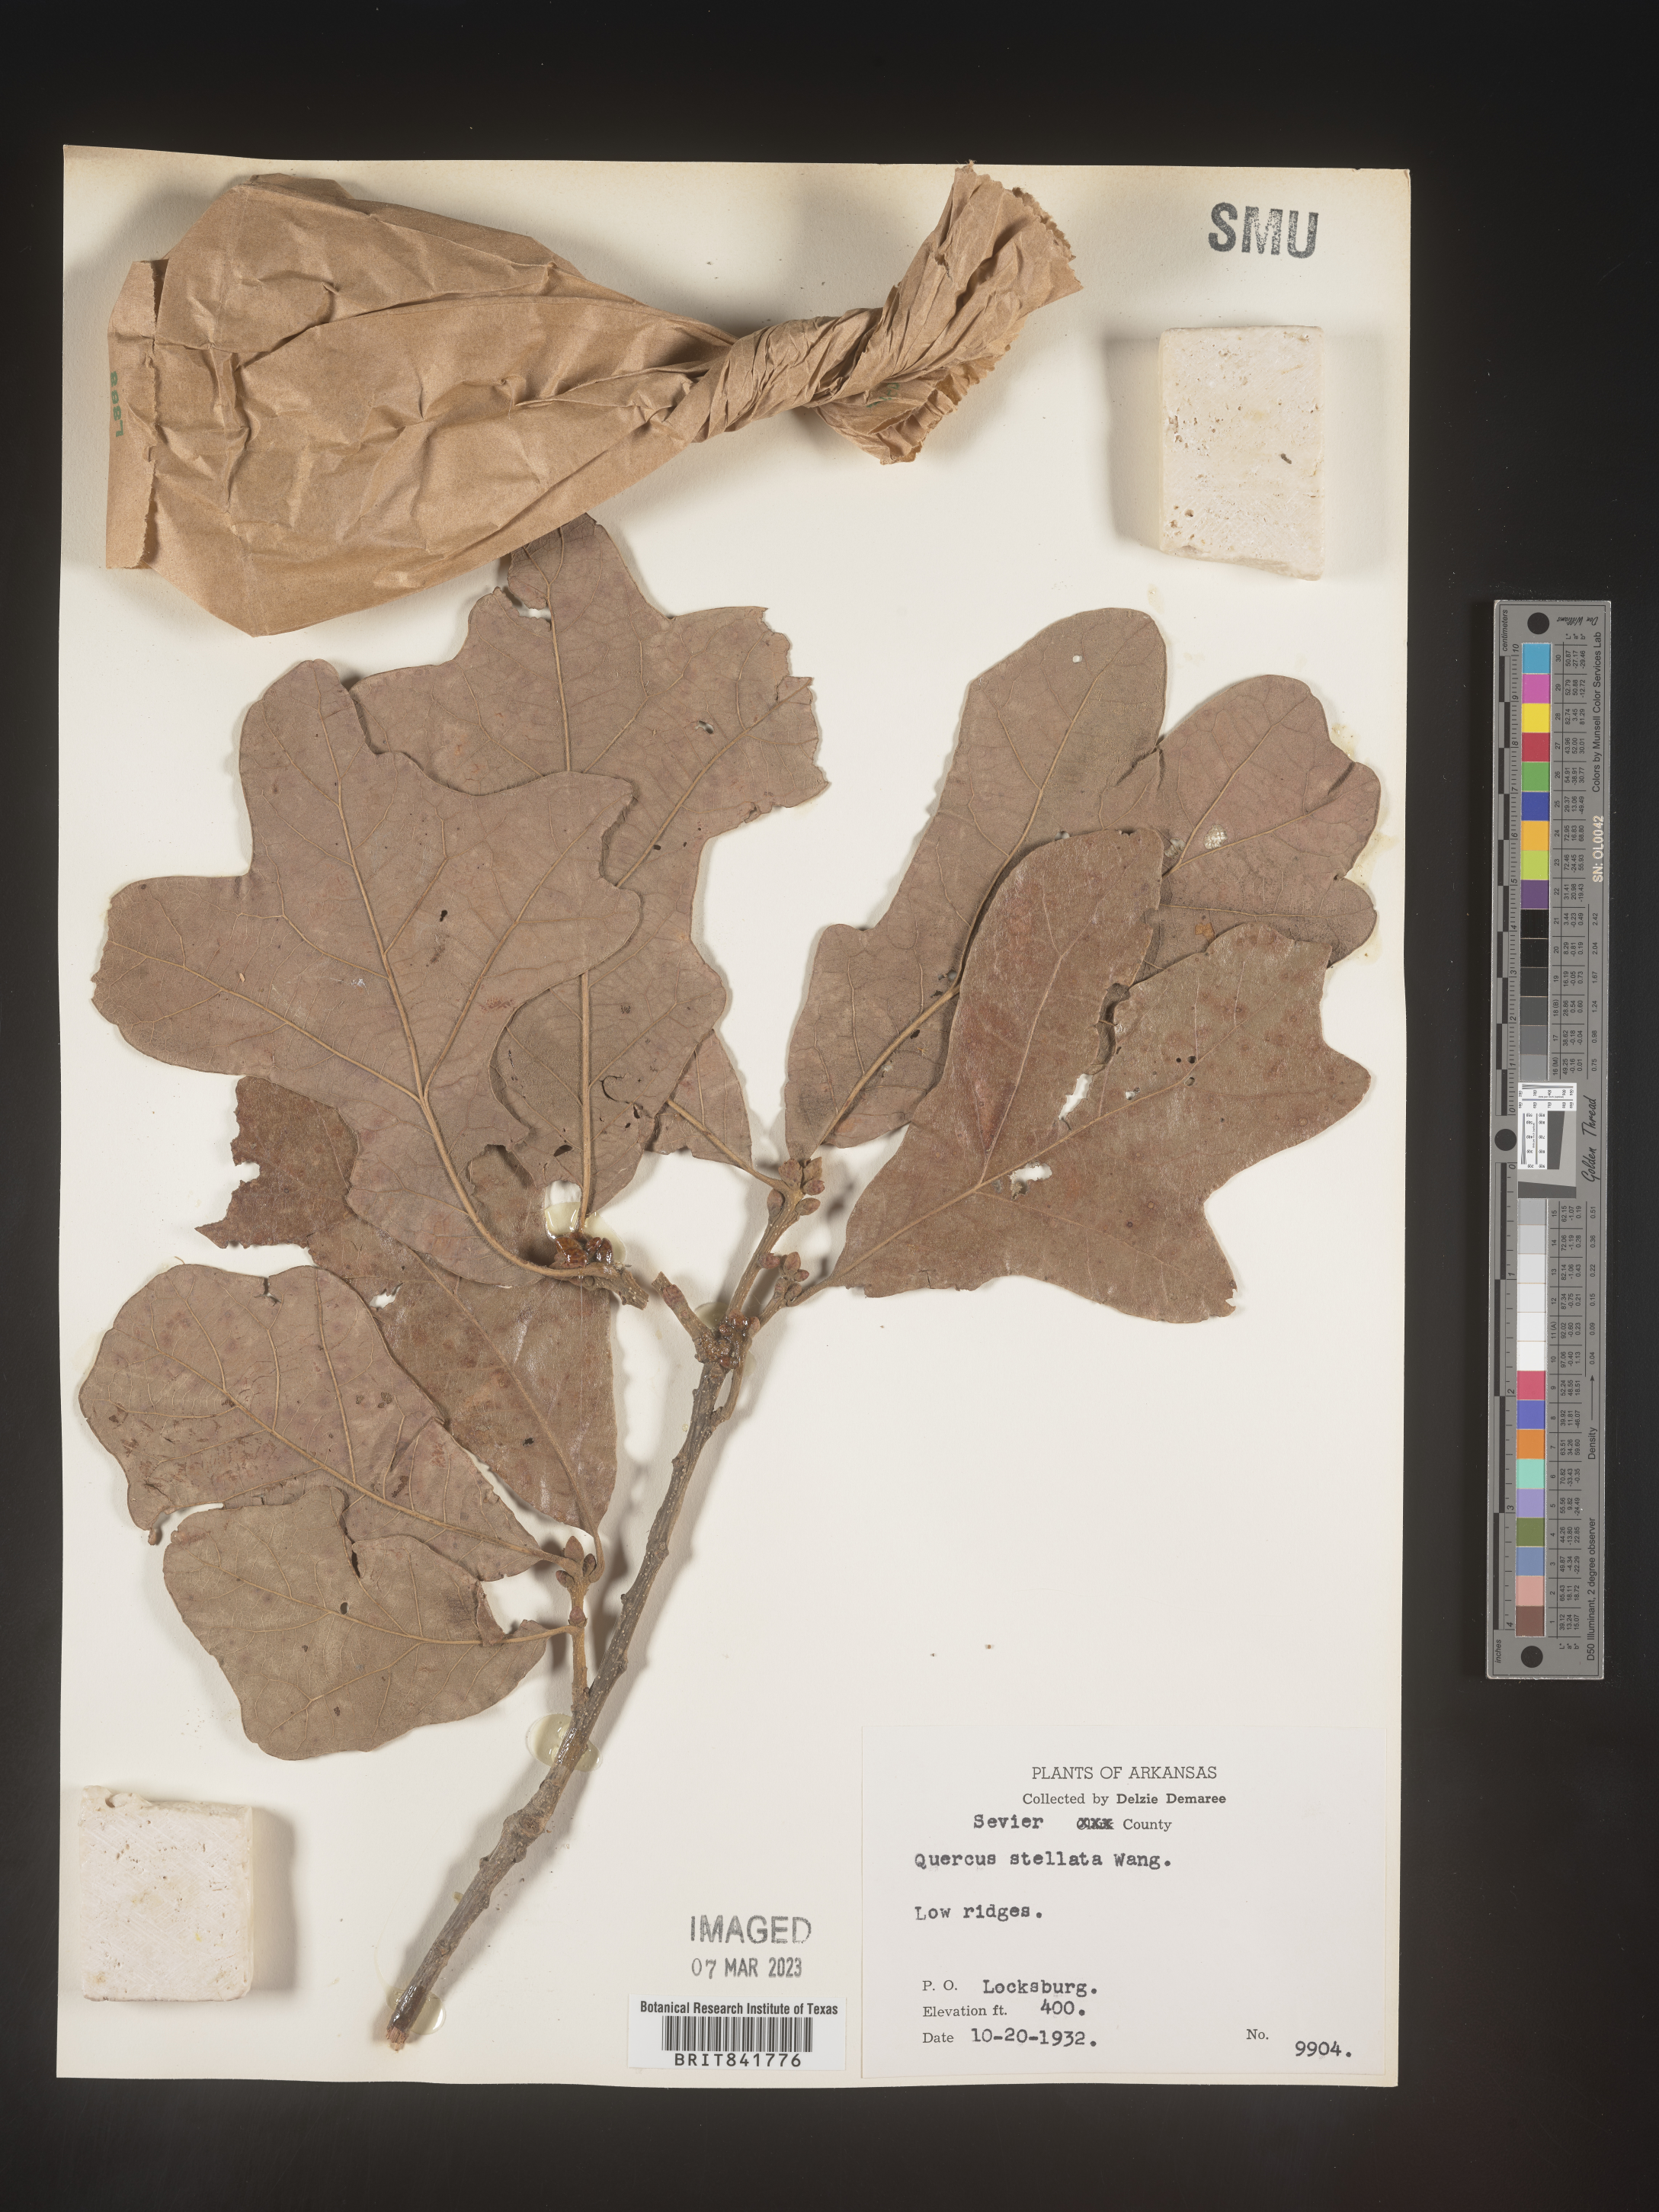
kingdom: Plantae
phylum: Tracheophyta
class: Magnoliopsida
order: Fagales
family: Fagaceae
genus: Quercus
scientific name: Quercus stellata
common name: Post oak
